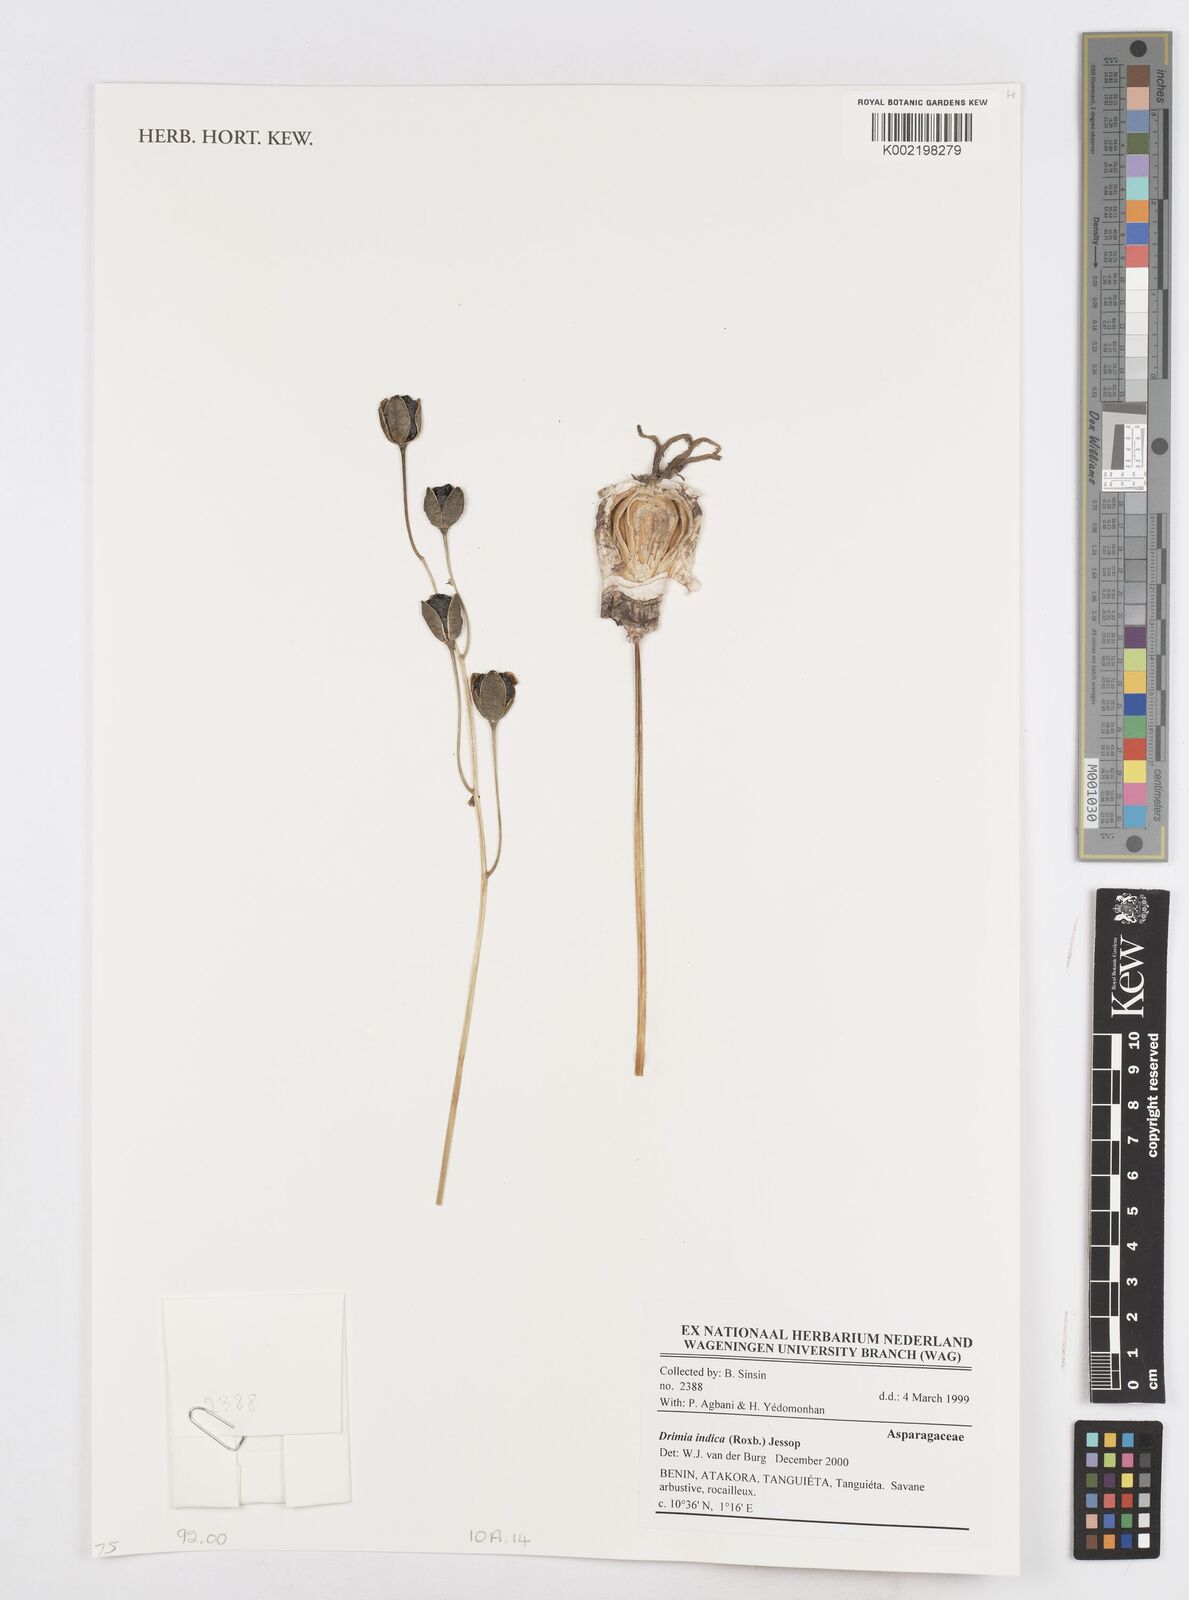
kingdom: Plantae
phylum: Tracheophyta
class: Liliopsida
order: Asparagales
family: Asparagaceae
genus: Drimia
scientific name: Drimia indica
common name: Indian-squill
